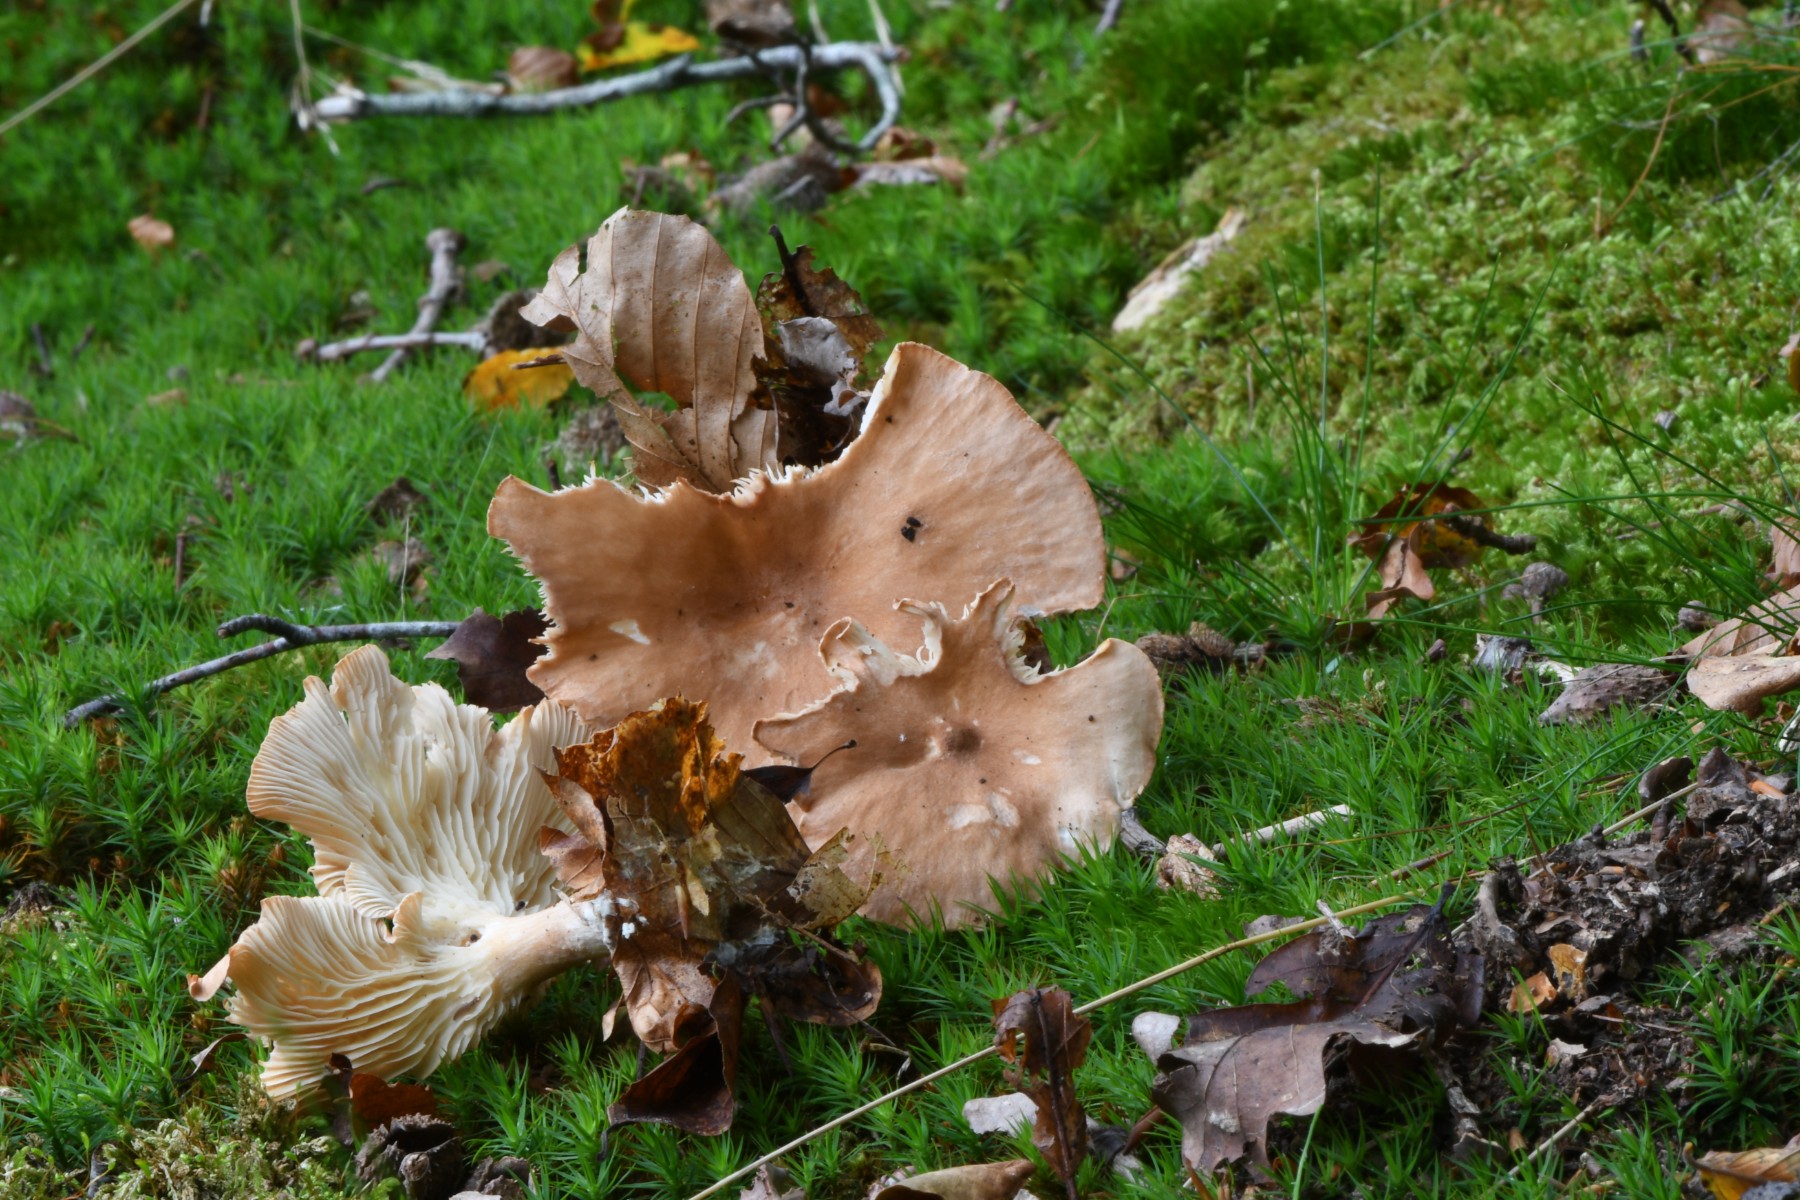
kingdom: Fungi
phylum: Basidiomycota
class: Agaricomycetes
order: Agaricales
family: Tricholomataceae
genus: Infundibulicybe
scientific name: Infundibulicybe gibba
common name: almindelig tragthat
